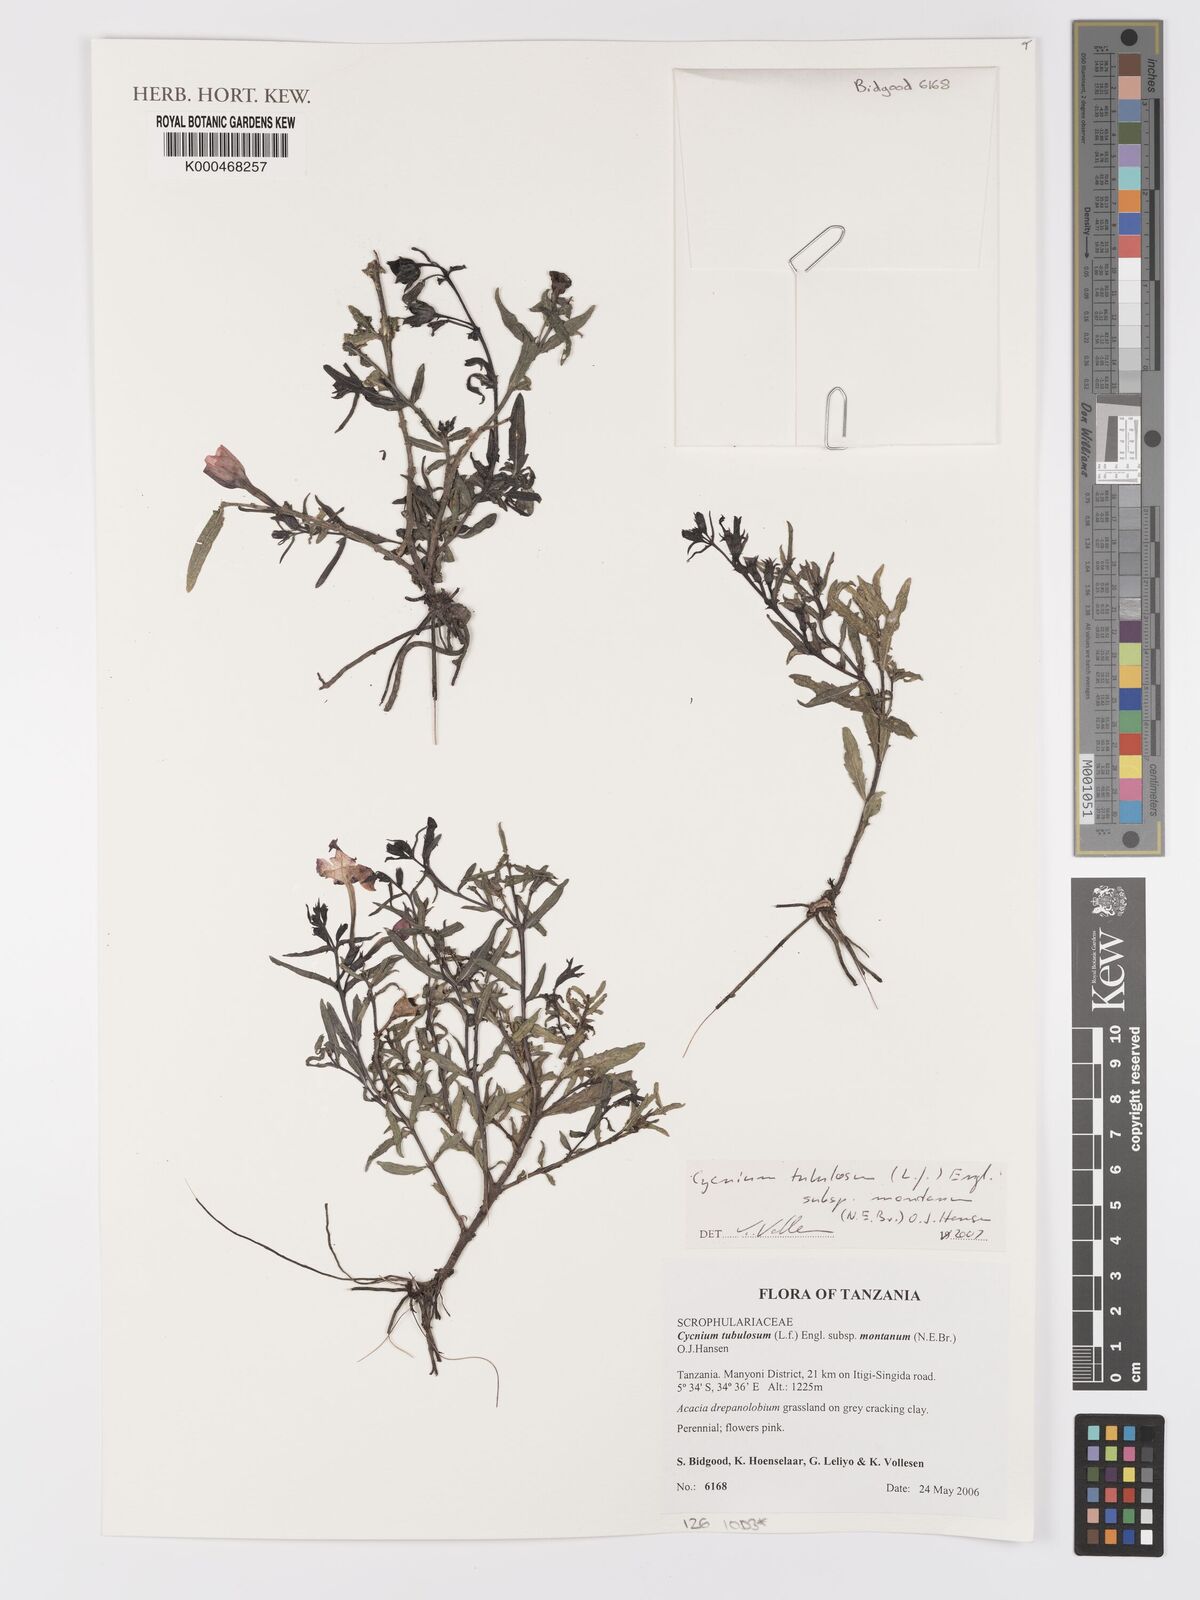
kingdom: Plantae
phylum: Tracheophyta
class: Magnoliopsida
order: Lamiales
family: Orobanchaceae
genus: Cycnium
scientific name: Cycnium tubulosum
